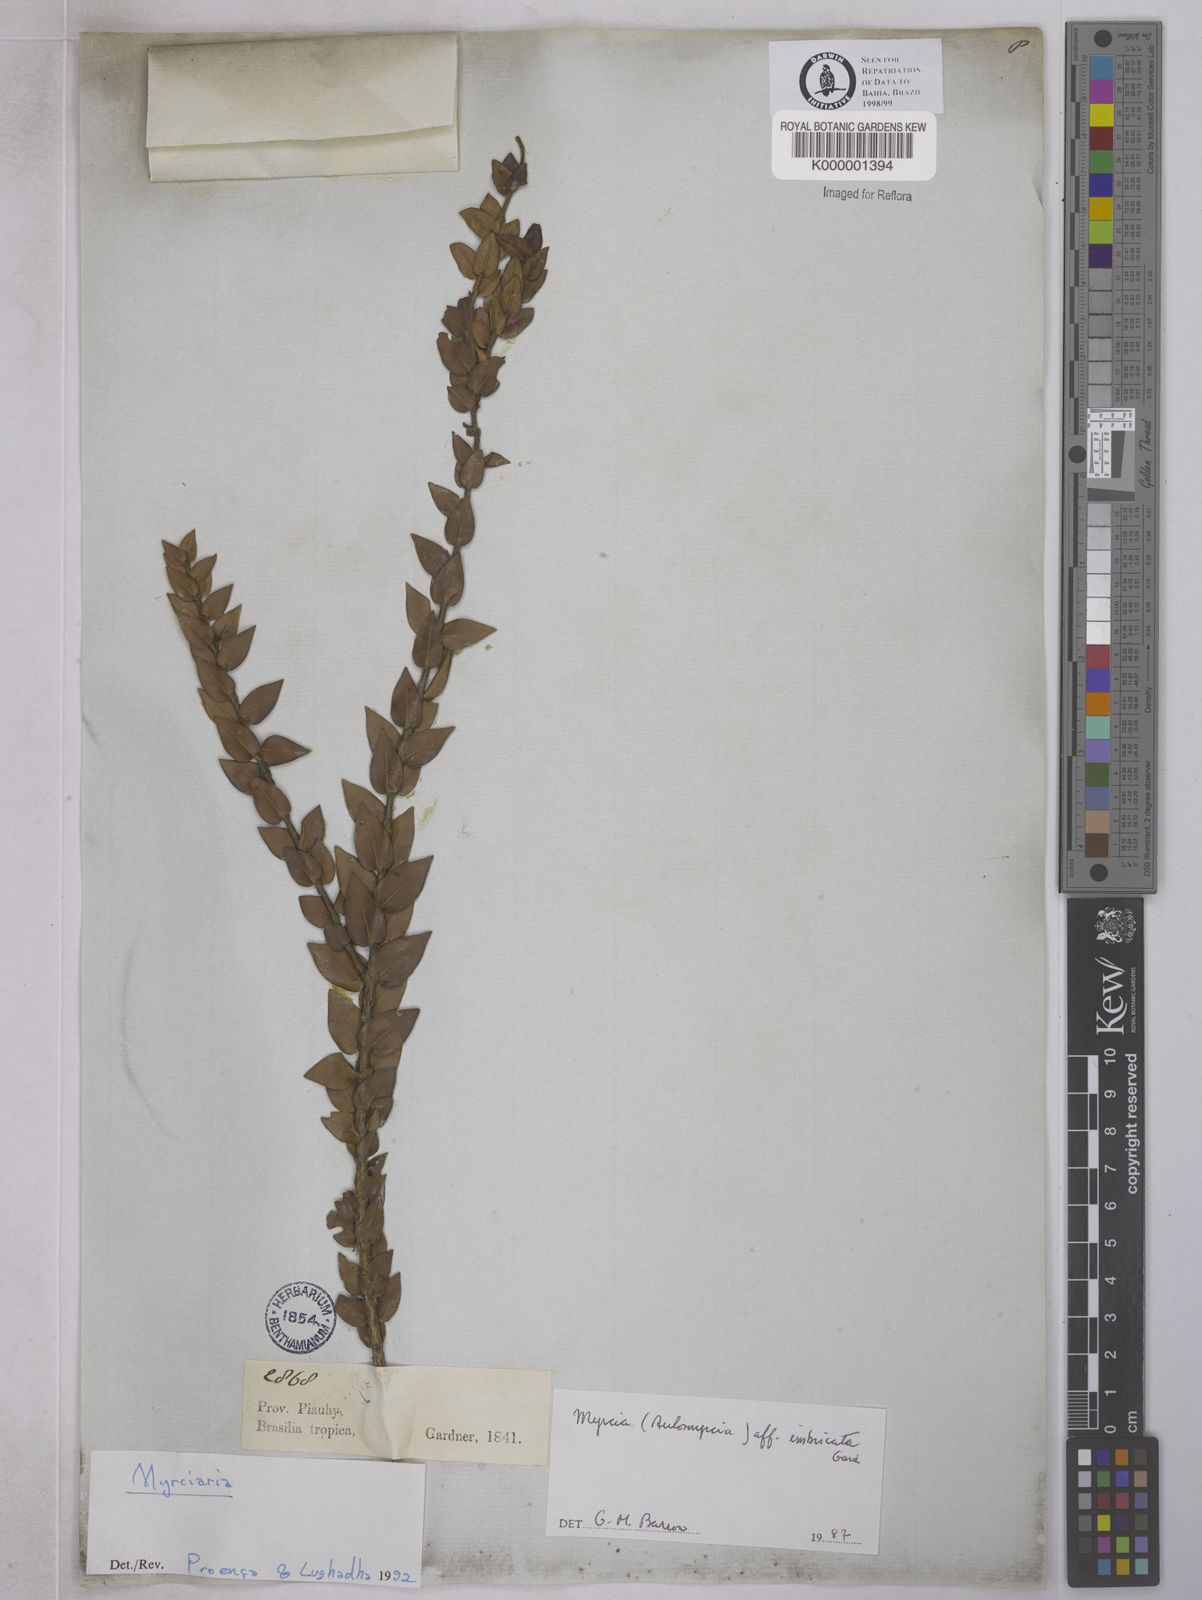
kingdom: Plantae
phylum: Tracheophyta
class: Magnoliopsida
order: Myrtales
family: Myrtaceae
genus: Myrciaria
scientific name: Myrciaria
